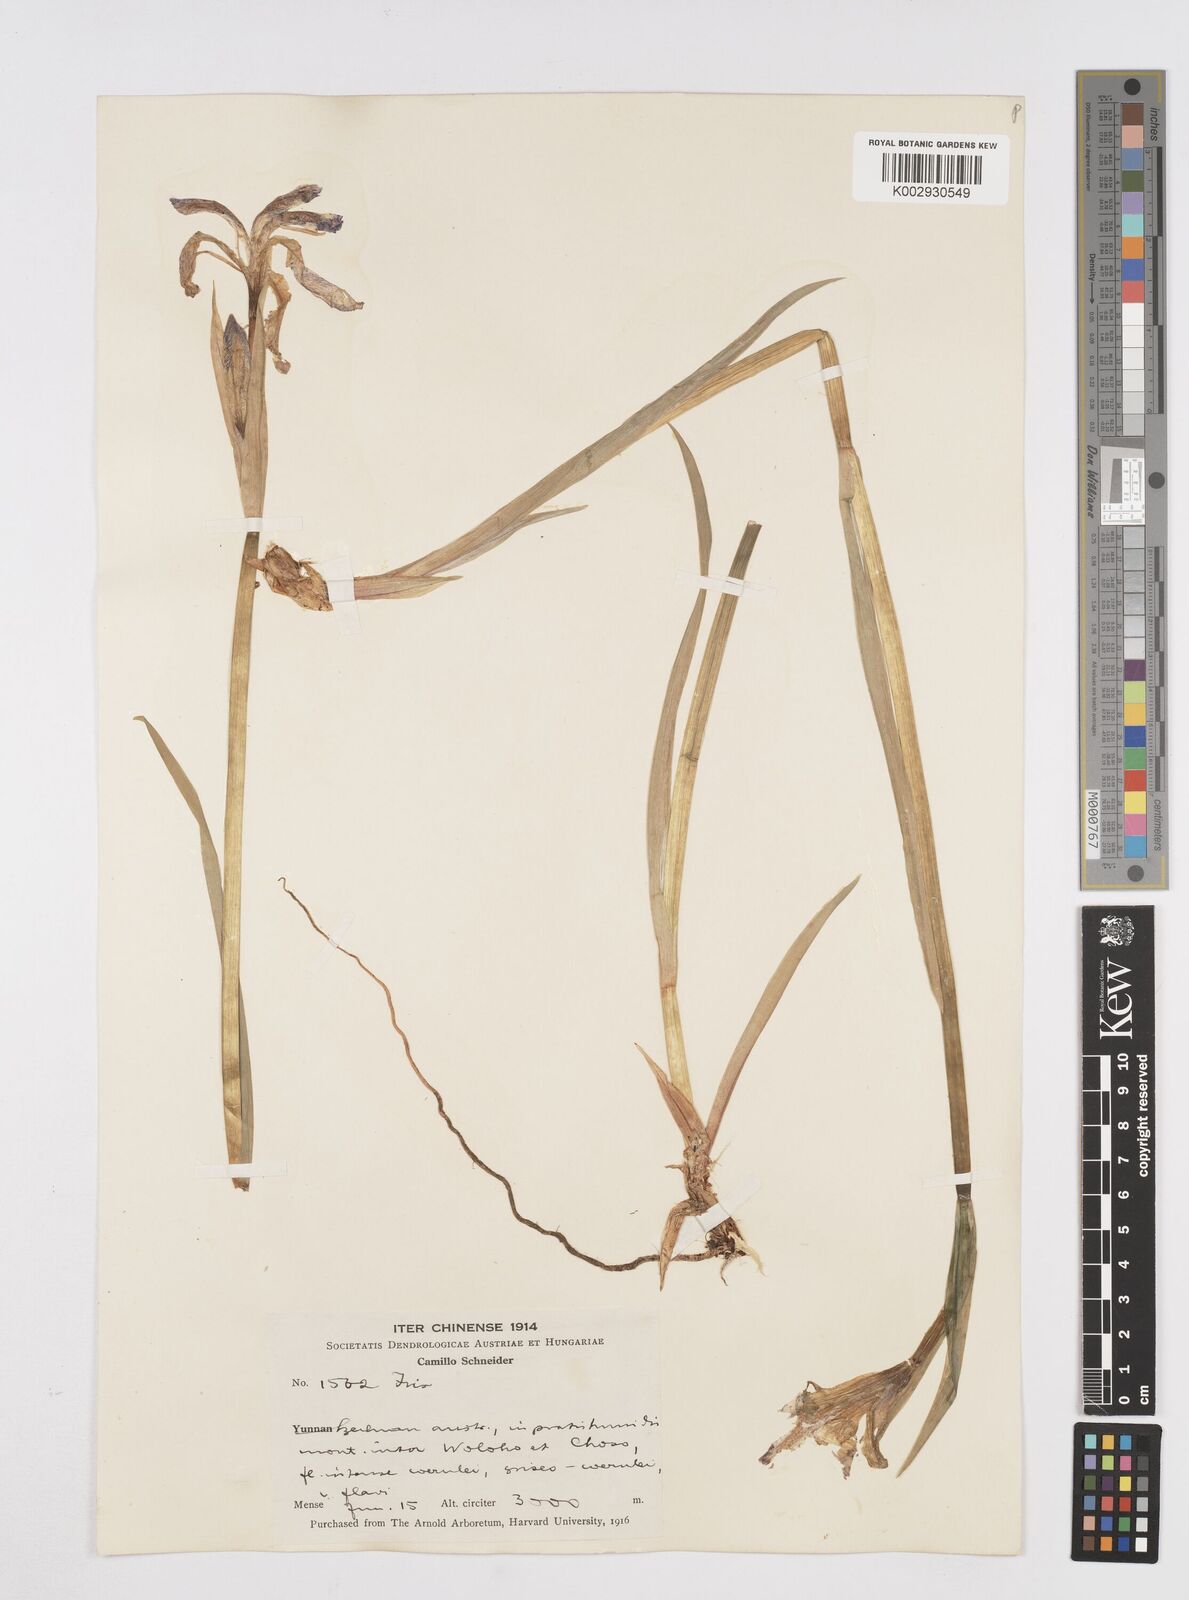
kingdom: Plantae
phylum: Tracheophyta
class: Liliopsida
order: Asparagales
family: Iridaceae
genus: Iris
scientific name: Iris bulleyana
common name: Southwest iris
